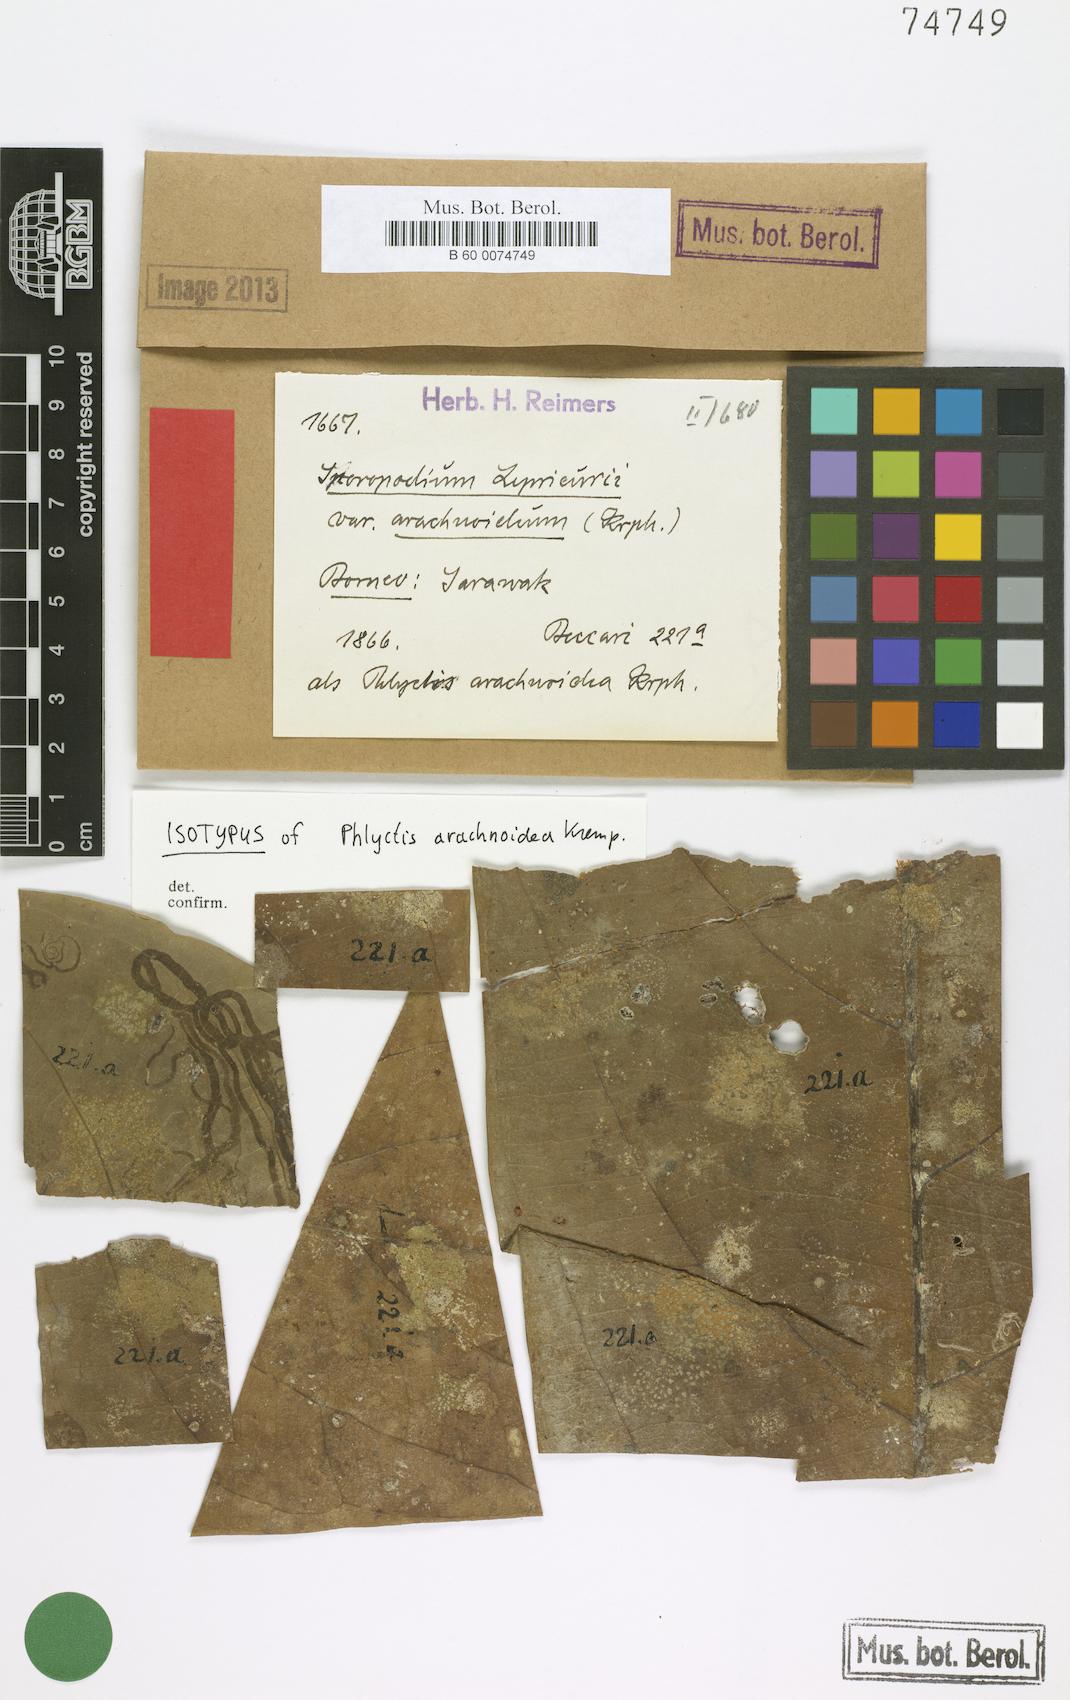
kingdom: Fungi
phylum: Ascomycota
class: Lecanoromycetes
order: Lecanorales
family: Byssolomataceae
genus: Lasioloma
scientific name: Lasioloma arachnoideum
